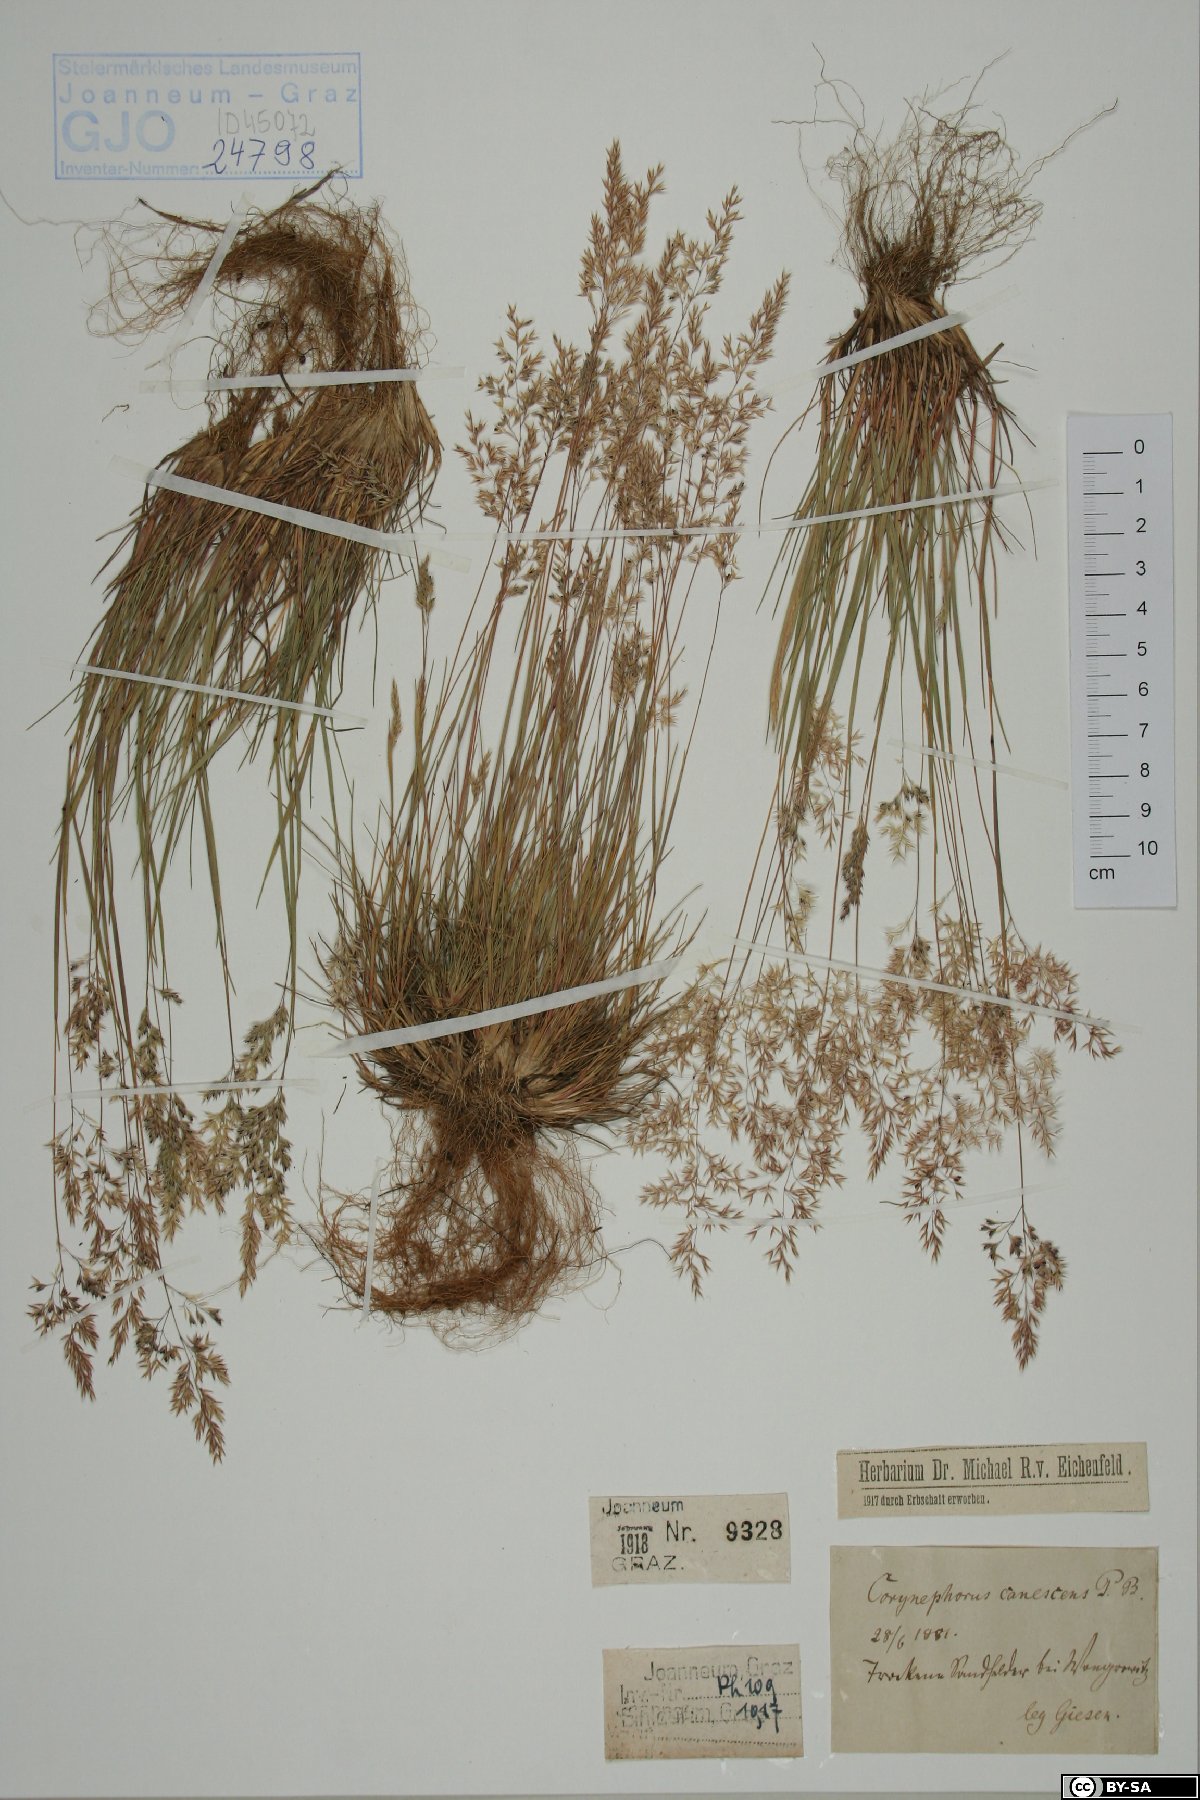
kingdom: Plantae
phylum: Tracheophyta
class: Liliopsida
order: Poales
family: Poaceae
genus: Corynephorus
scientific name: Corynephorus canescens
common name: Grey hair-grass
